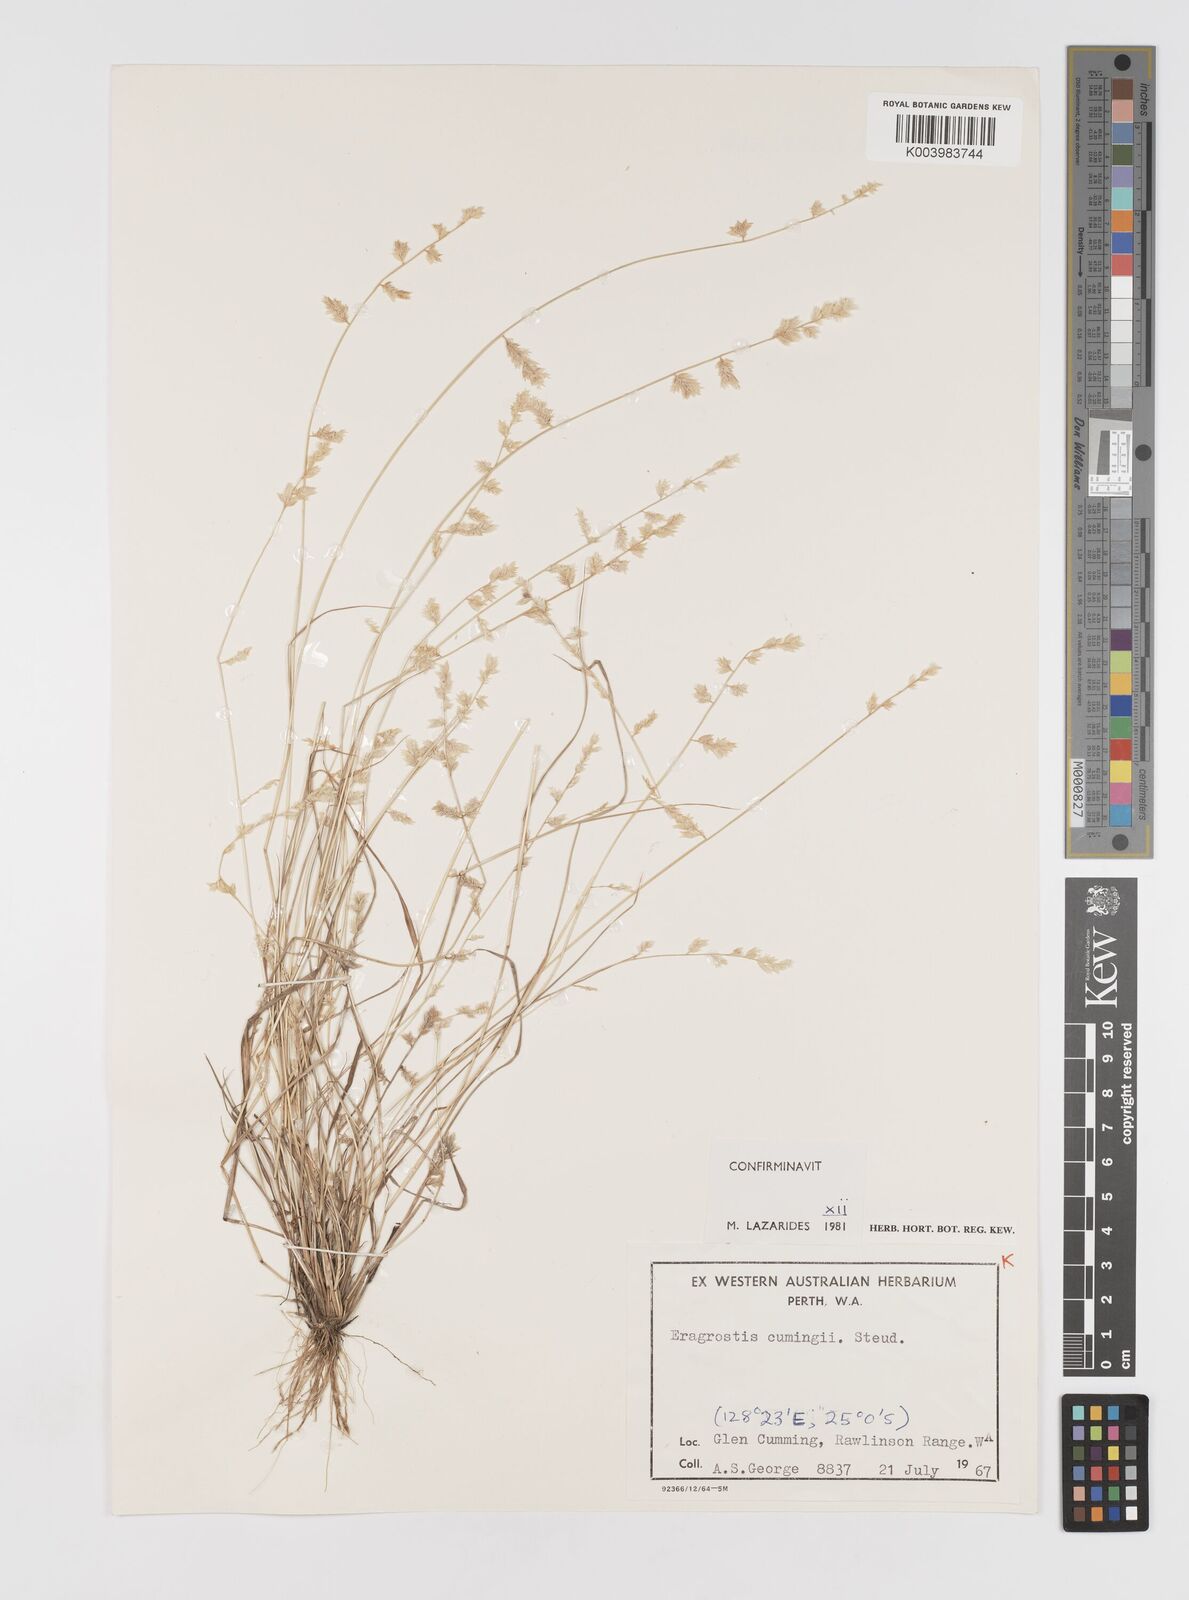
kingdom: Plantae
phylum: Tracheophyta
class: Liliopsida
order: Poales
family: Poaceae
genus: Eragrostis
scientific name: Eragrostis cumingii
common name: Cuming's lovegrass
